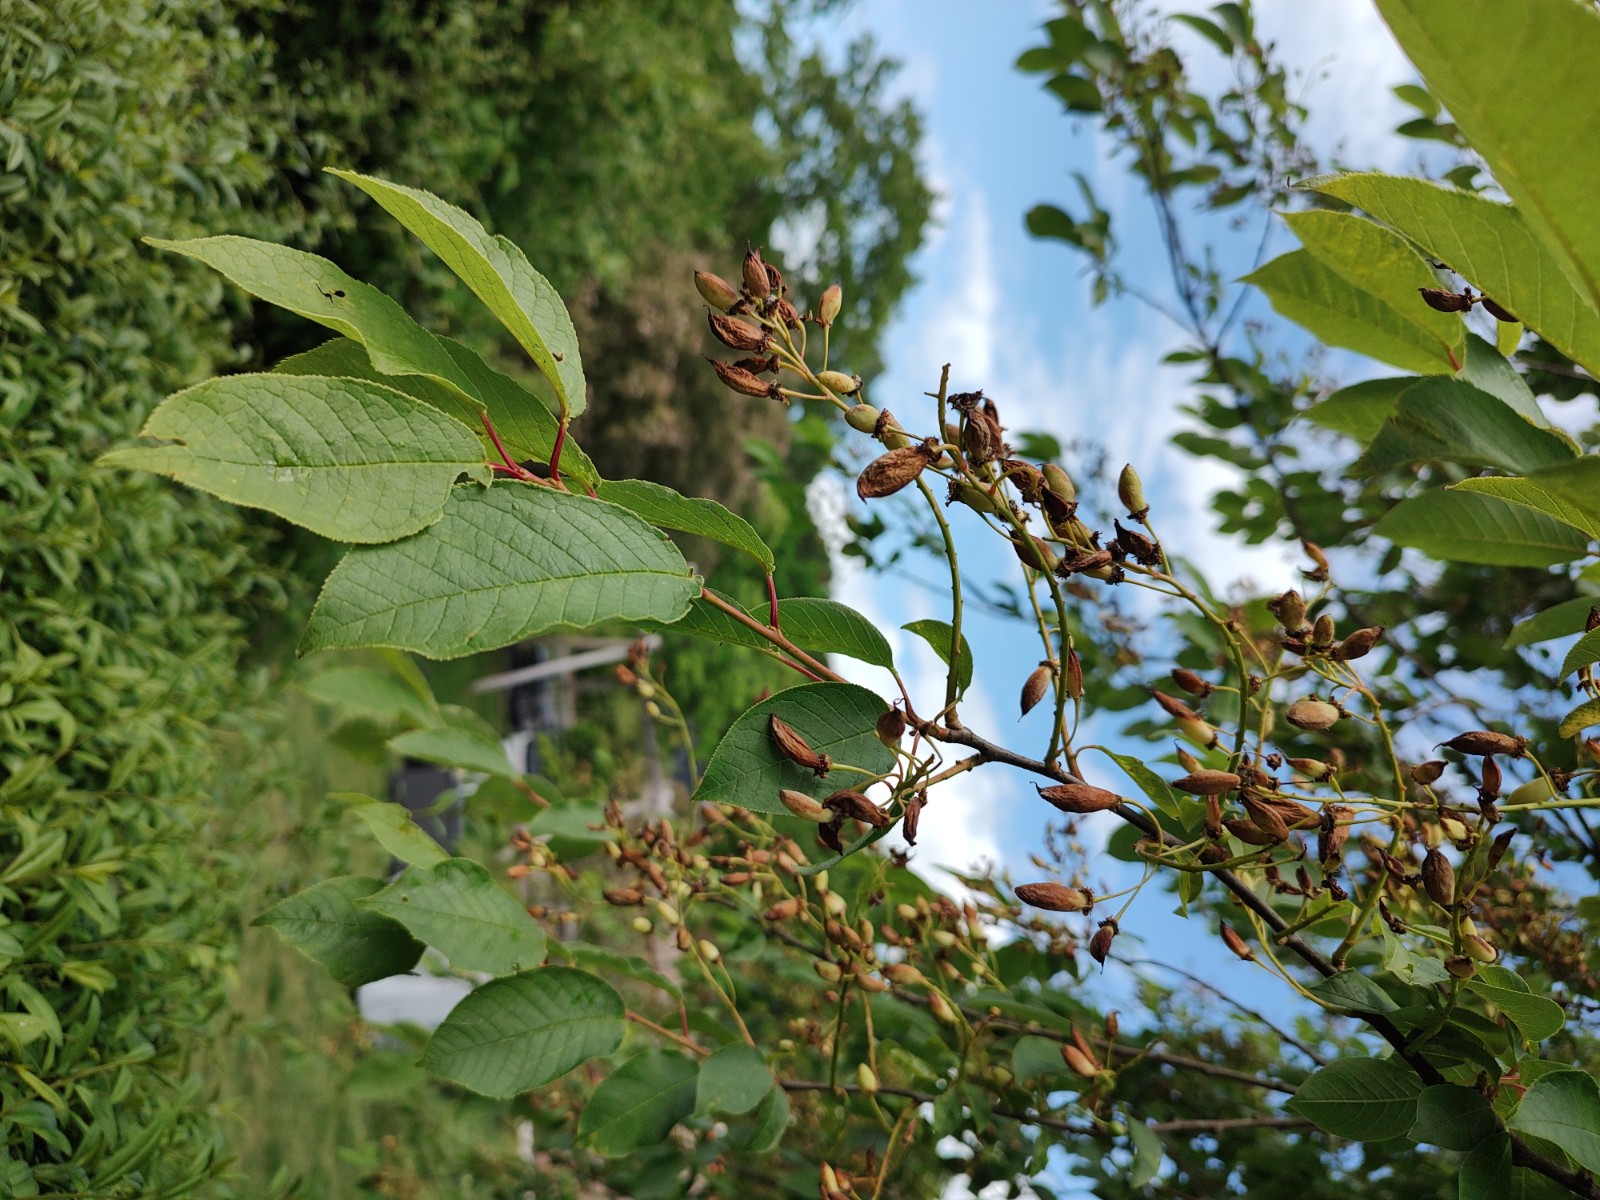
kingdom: Fungi
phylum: Ascomycota
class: Taphrinomycetes
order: Taphrinales
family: Taphrinaceae
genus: Taphrina
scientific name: Taphrina padi
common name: Bird cherry pocket
